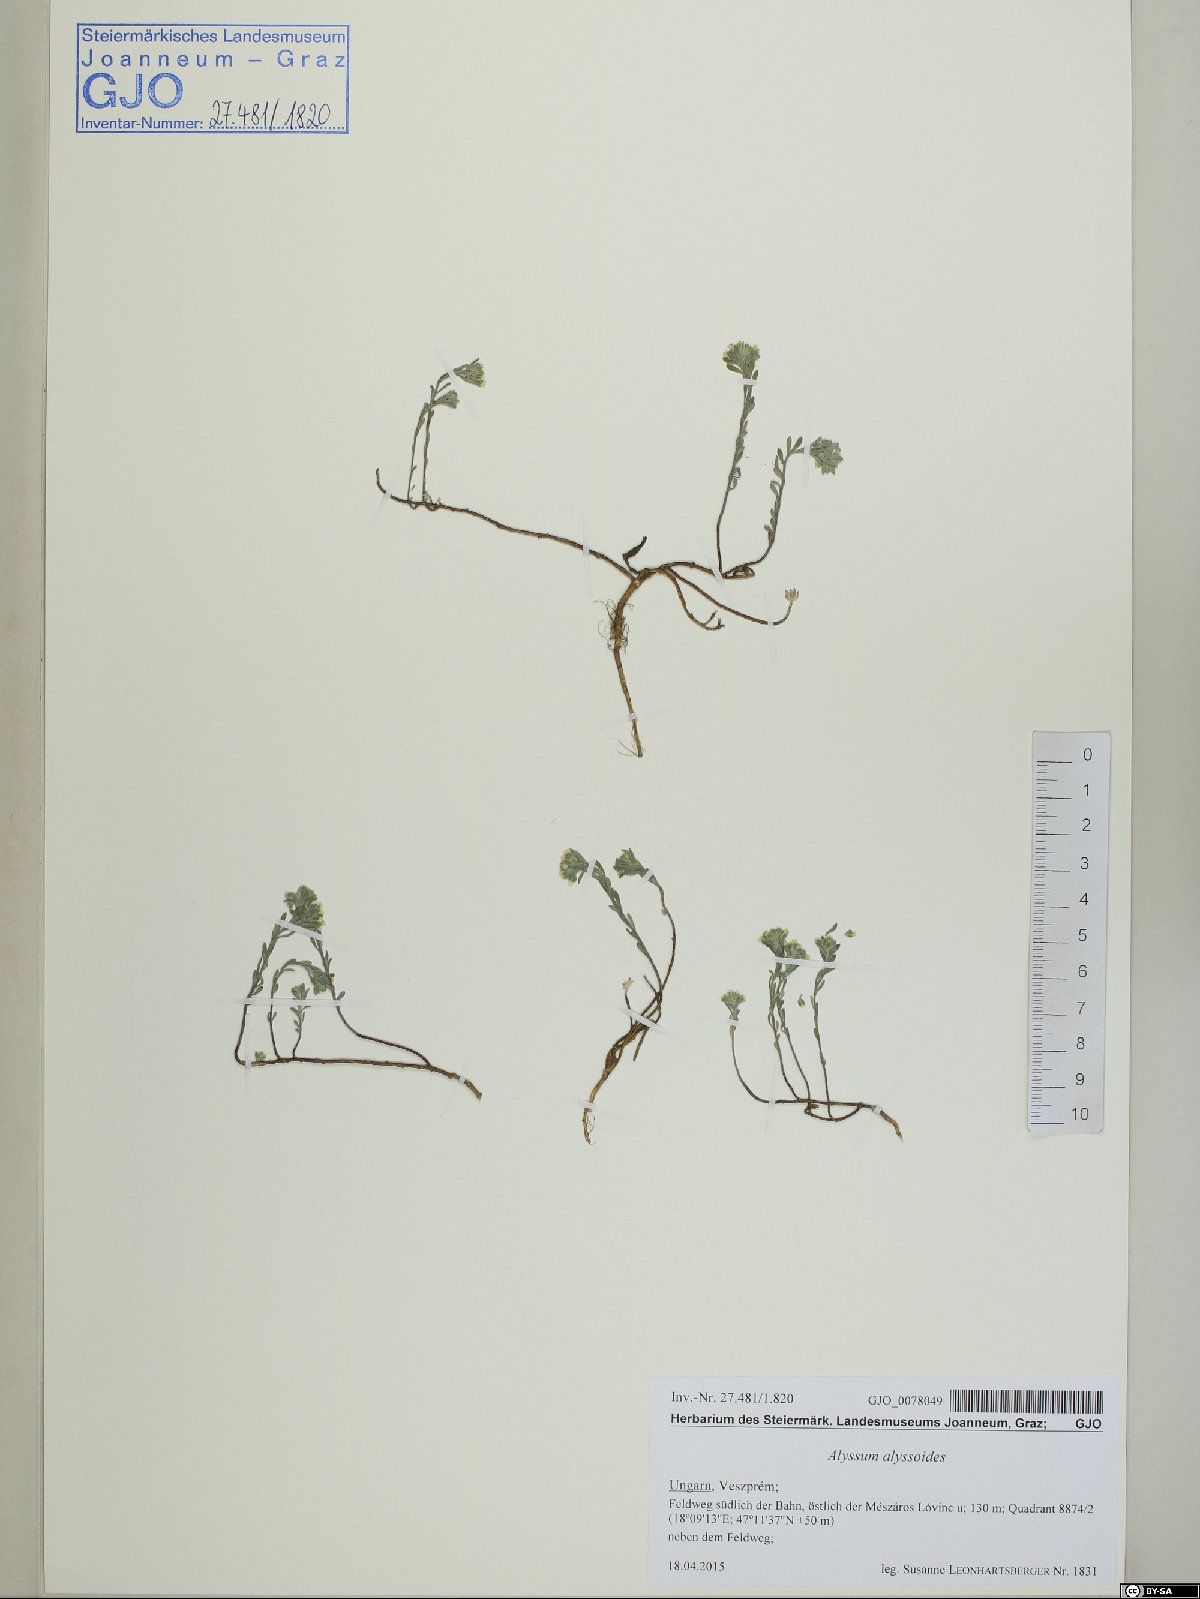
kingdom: Plantae
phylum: Tracheophyta
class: Magnoliopsida
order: Brassicales
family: Brassicaceae
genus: Alyssum
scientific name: Alyssum alyssoides
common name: Small alison
